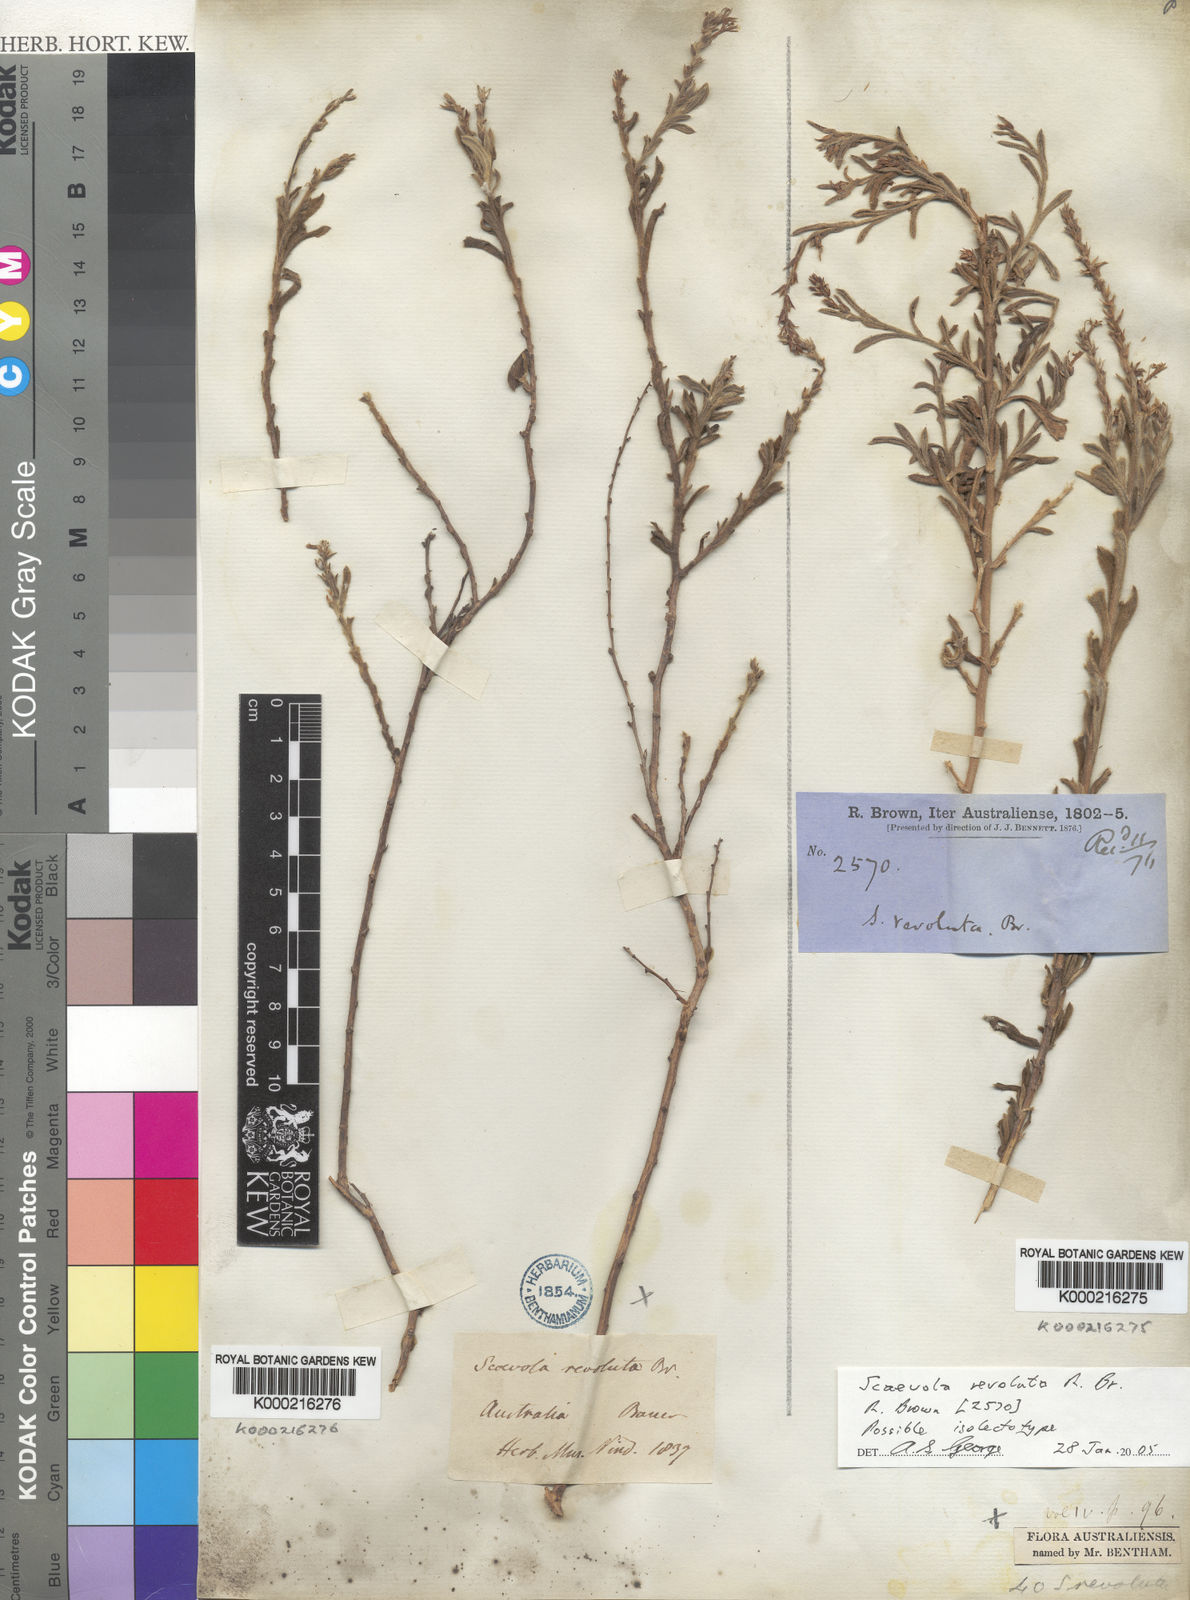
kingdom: Plantae
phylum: Tracheophyta
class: Magnoliopsida
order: Asterales
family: Goodeniaceae
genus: Scaevola
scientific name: Scaevola revoluta
